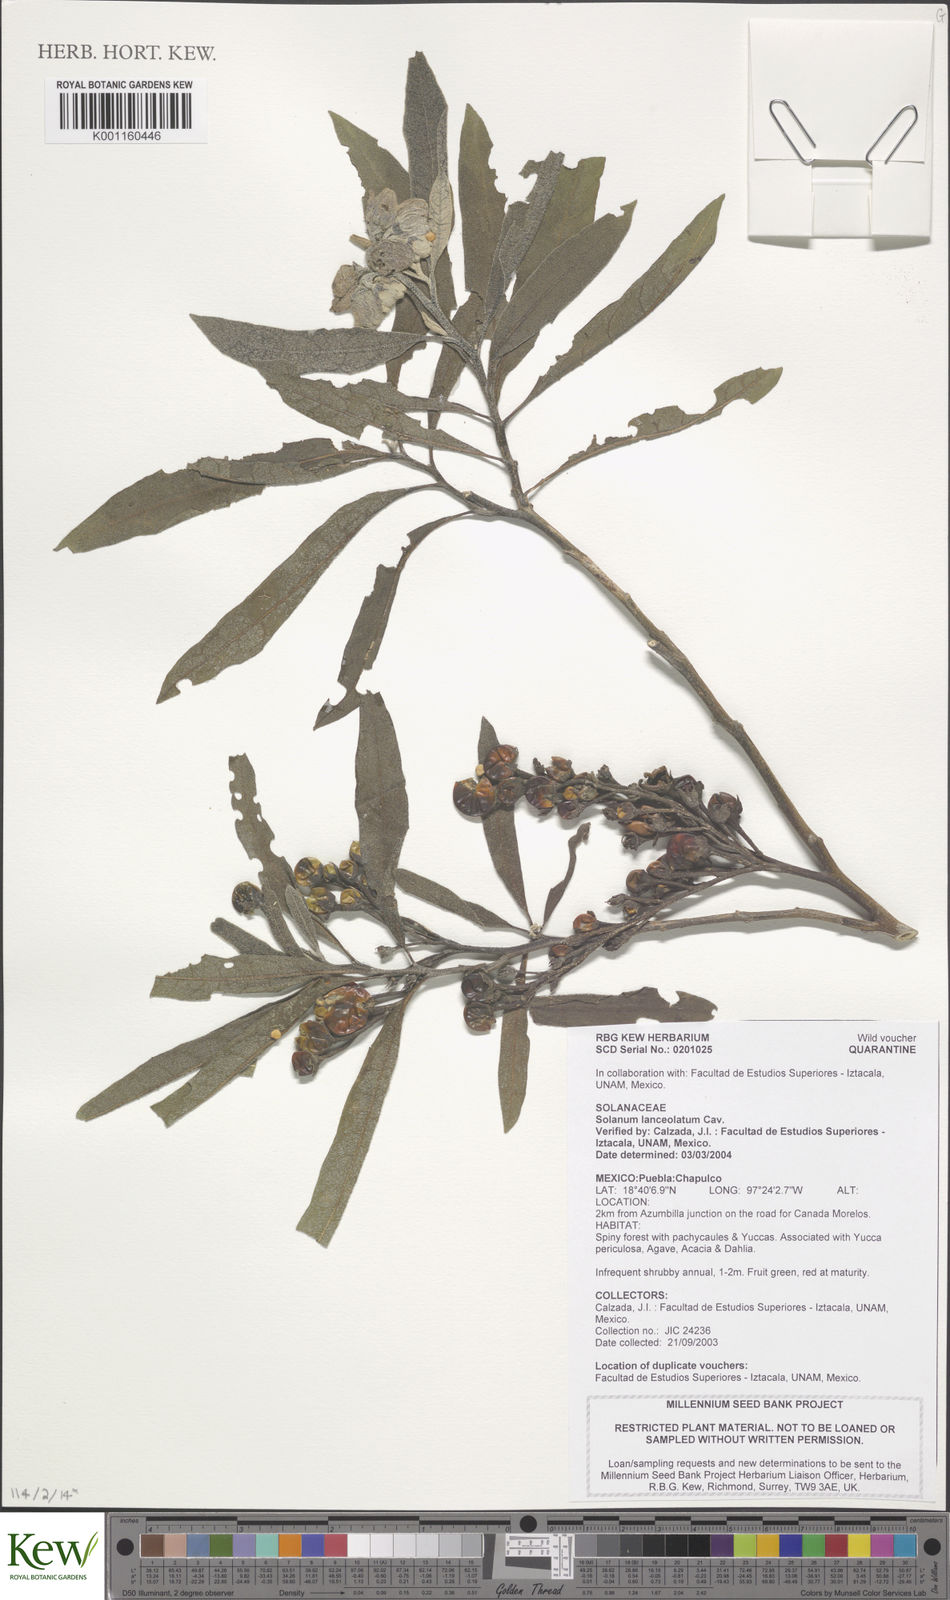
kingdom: Plantae
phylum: Tracheophyta
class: Magnoliopsida
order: Solanales
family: Solanaceae
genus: Solanum
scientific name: Solanum lanceolatum
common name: Orangeberry nightshade
